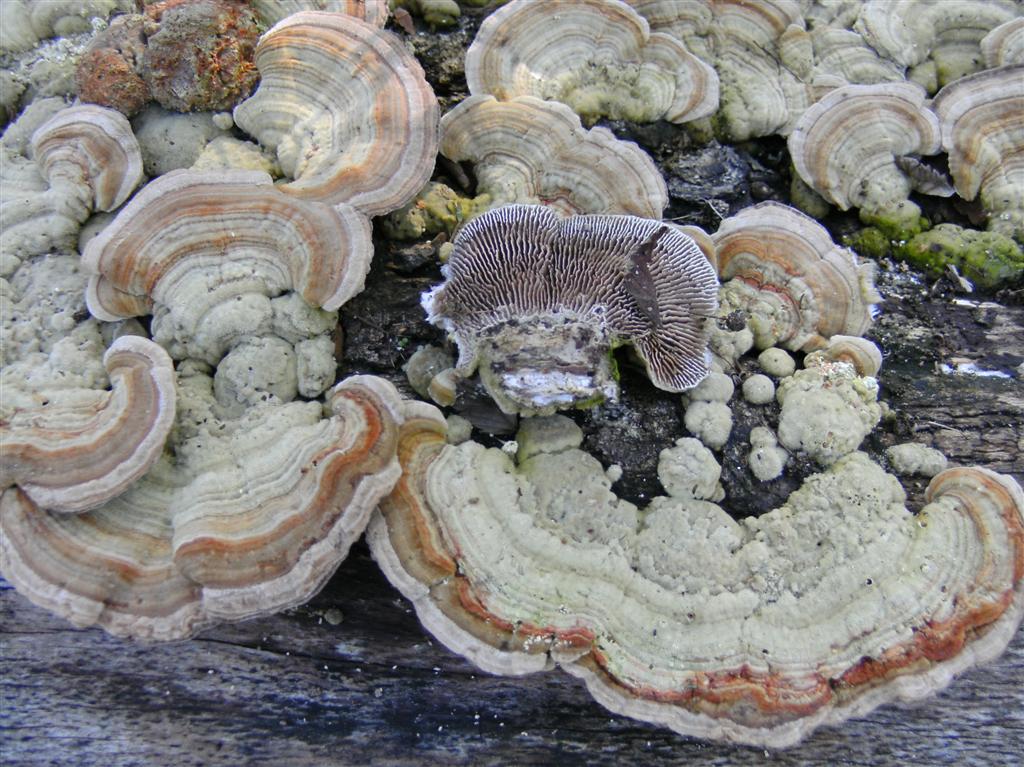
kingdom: Fungi
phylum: Basidiomycota
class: Agaricomycetes
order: Polyporales
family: Polyporaceae
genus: Lenzites
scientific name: Lenzites betulinus
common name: birke-læderporesvamp
